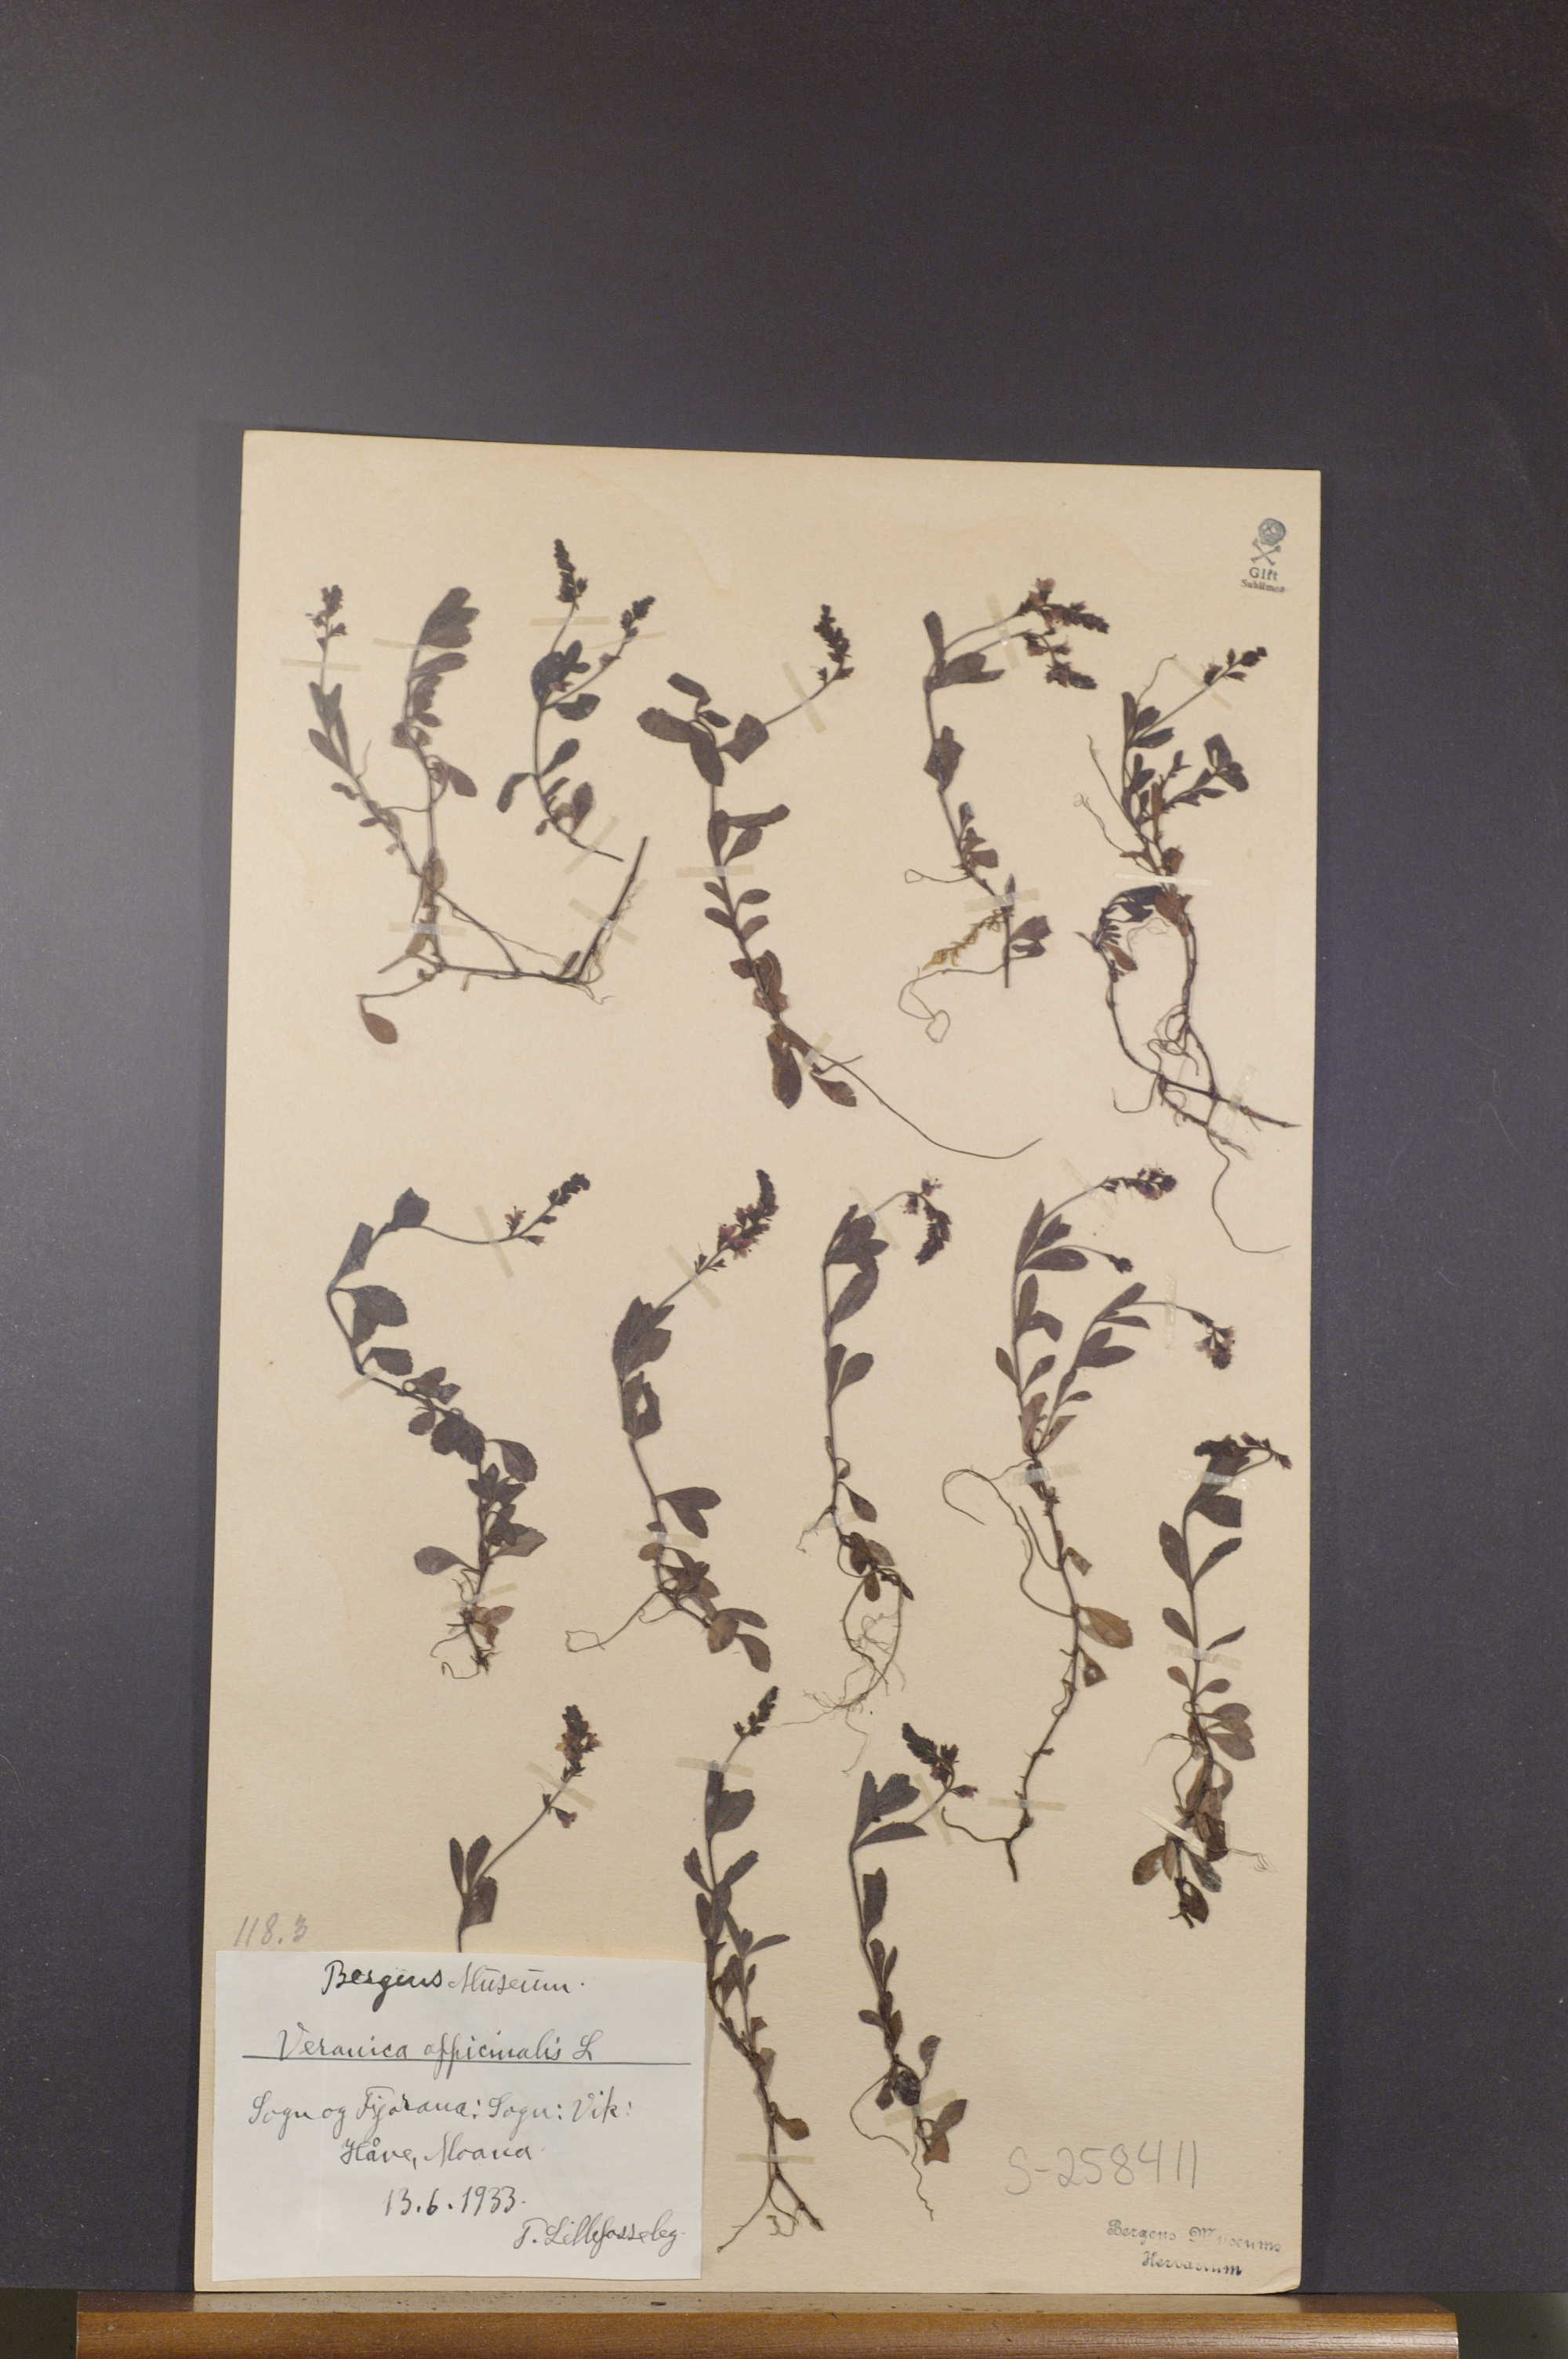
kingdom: Plantae
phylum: Tracheophyta
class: Magnoliopsida
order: Lamiales
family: Plantaginaceae
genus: Veronica
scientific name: Veronica officinalis
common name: Common speedwell
